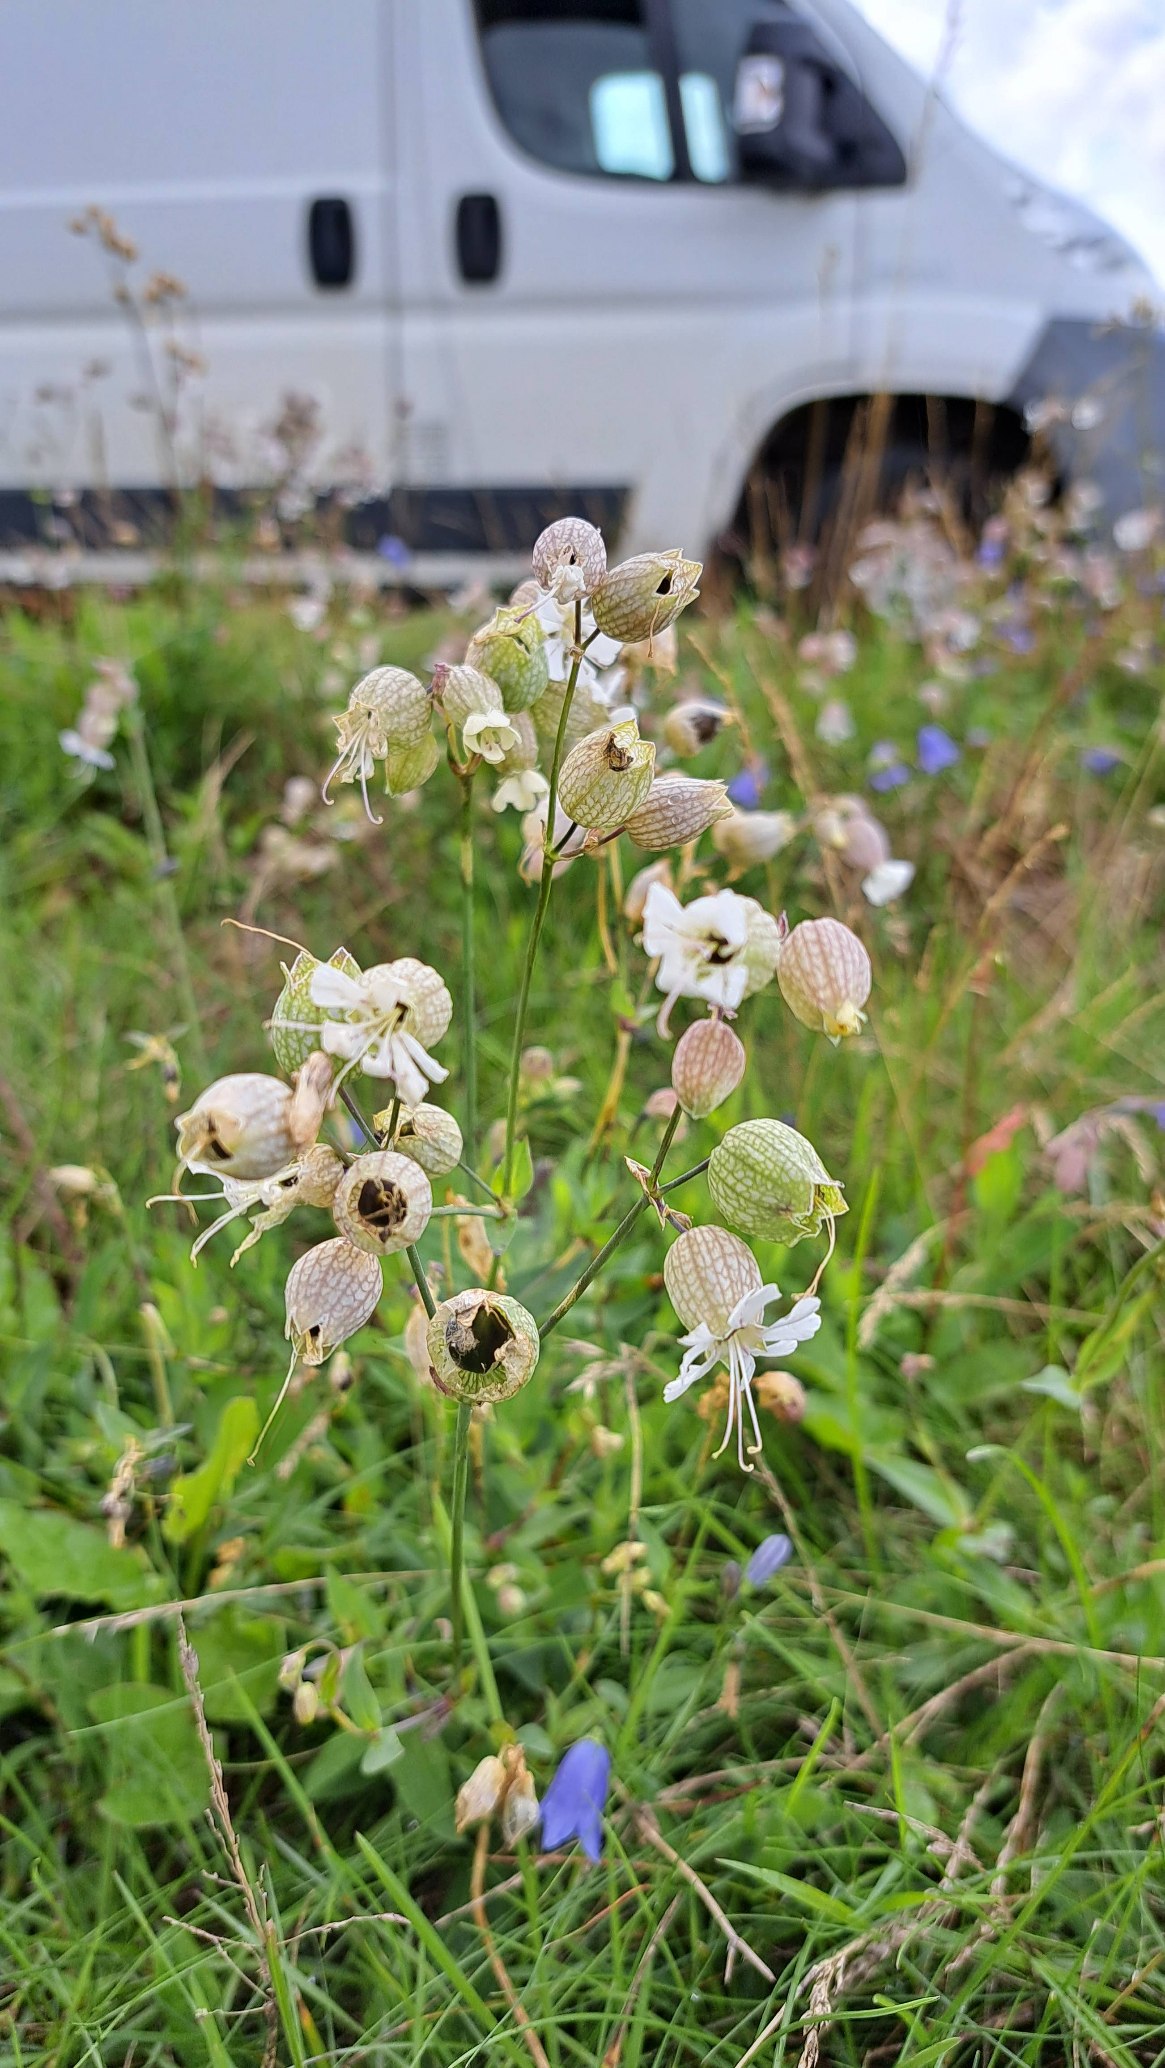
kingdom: Plantae
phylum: Tracheophyta
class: Magnoliopsida
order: Caryophyllales
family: Caryophyllaceae
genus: Silene
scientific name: Silene vulgaris
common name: Blæresmælde
